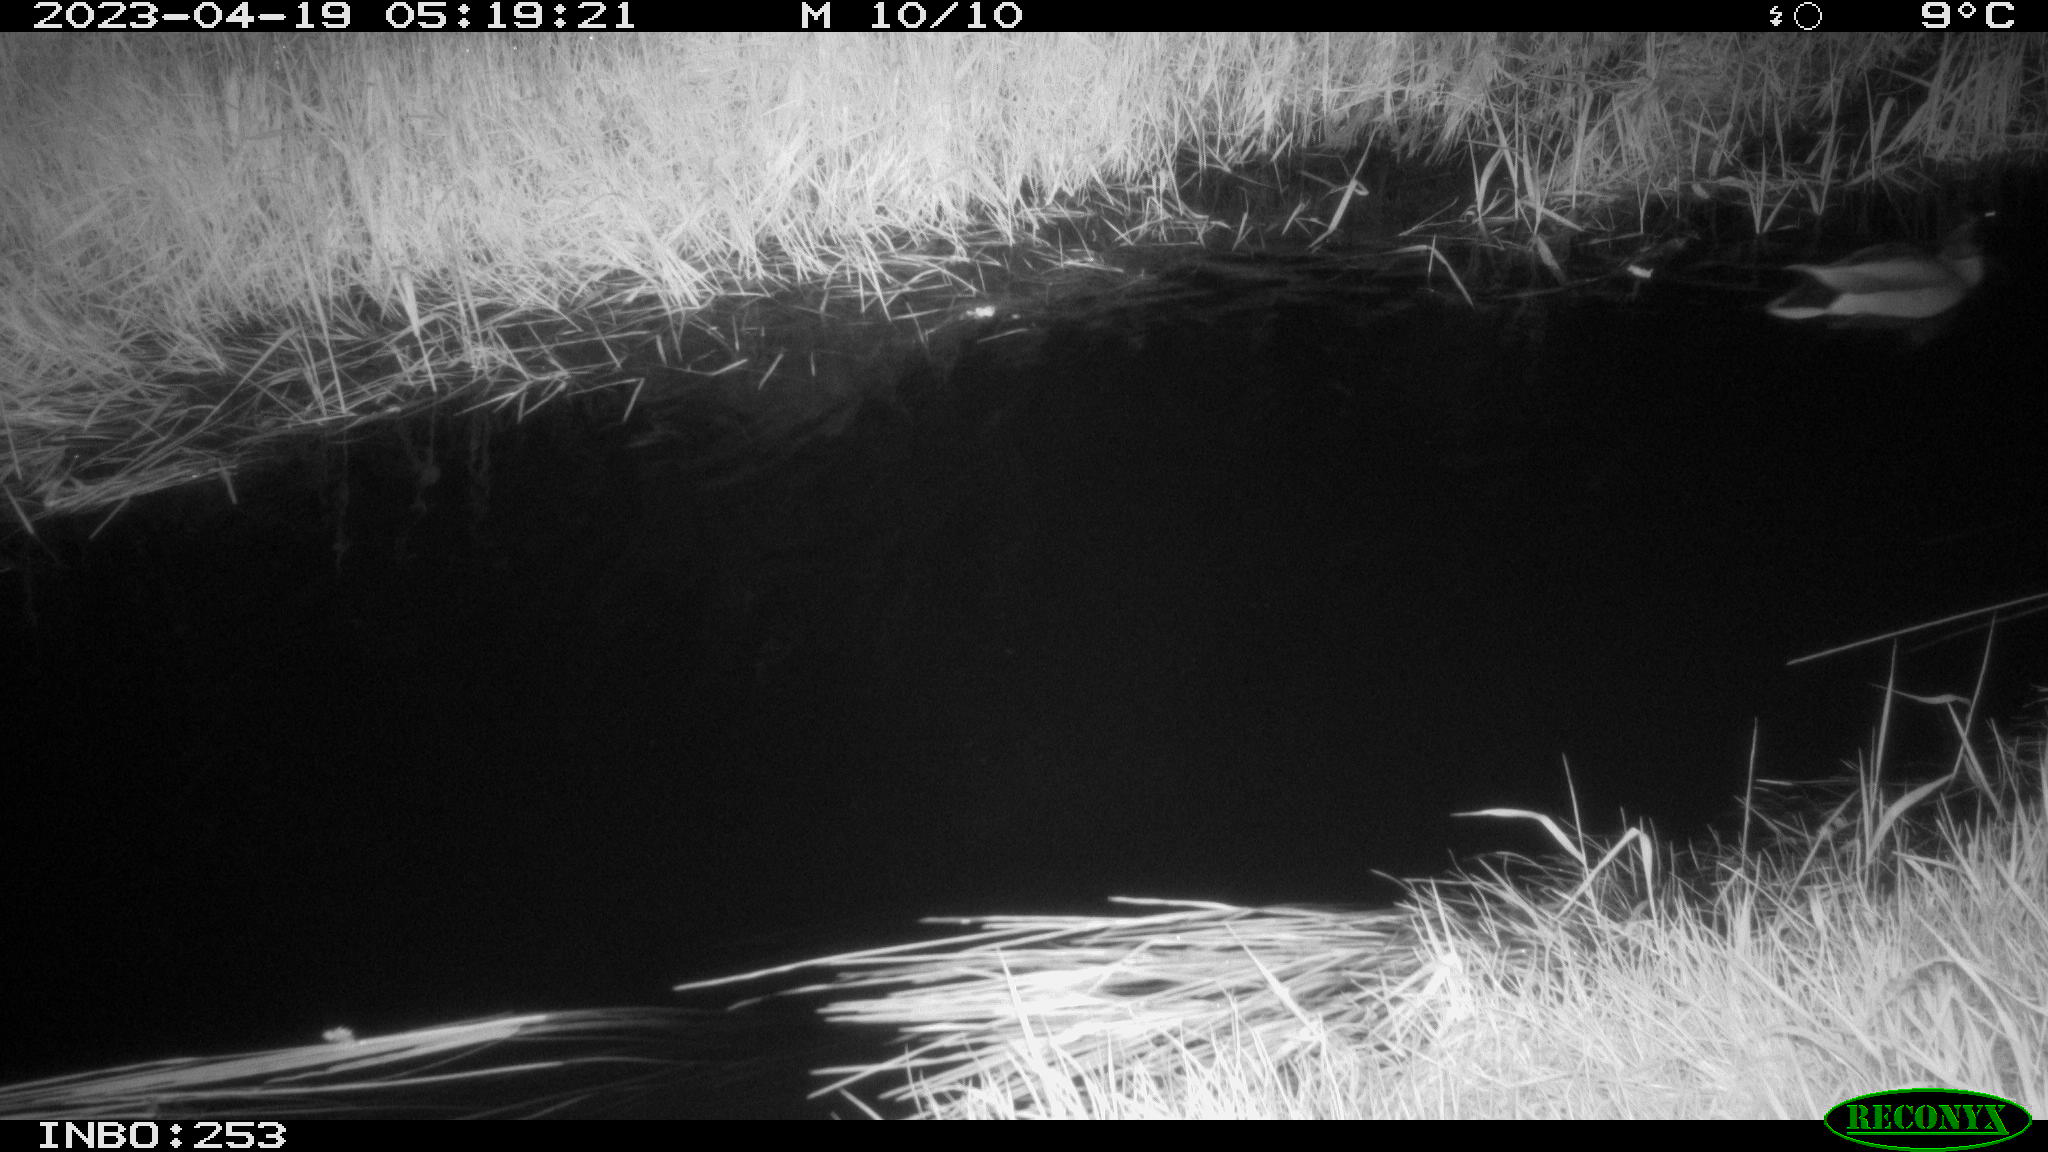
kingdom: Animalia
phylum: Chordata
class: Aves
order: Anseriformes
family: Anatidae
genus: Anas
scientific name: Anas
